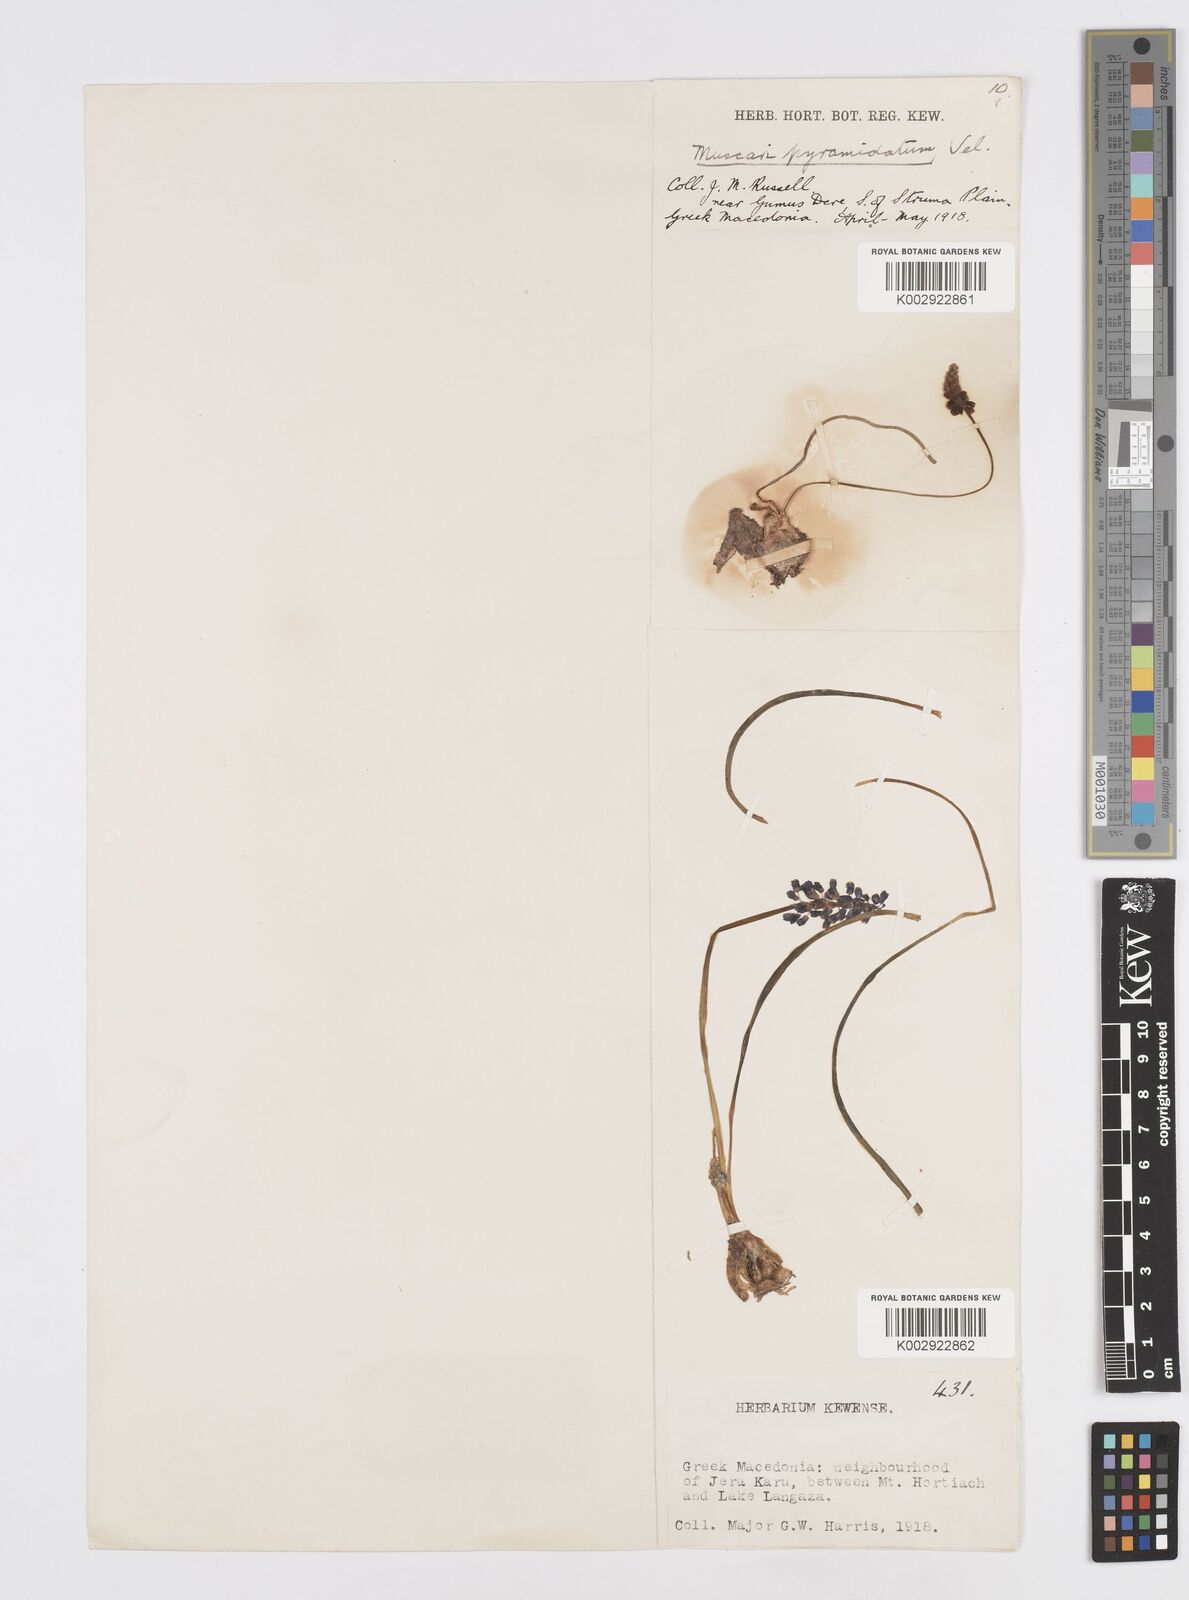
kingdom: Plantae
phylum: Tracheophyta
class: Liliopsida
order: Asparagales
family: Asparagaceae
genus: Muscari
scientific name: Muscari
